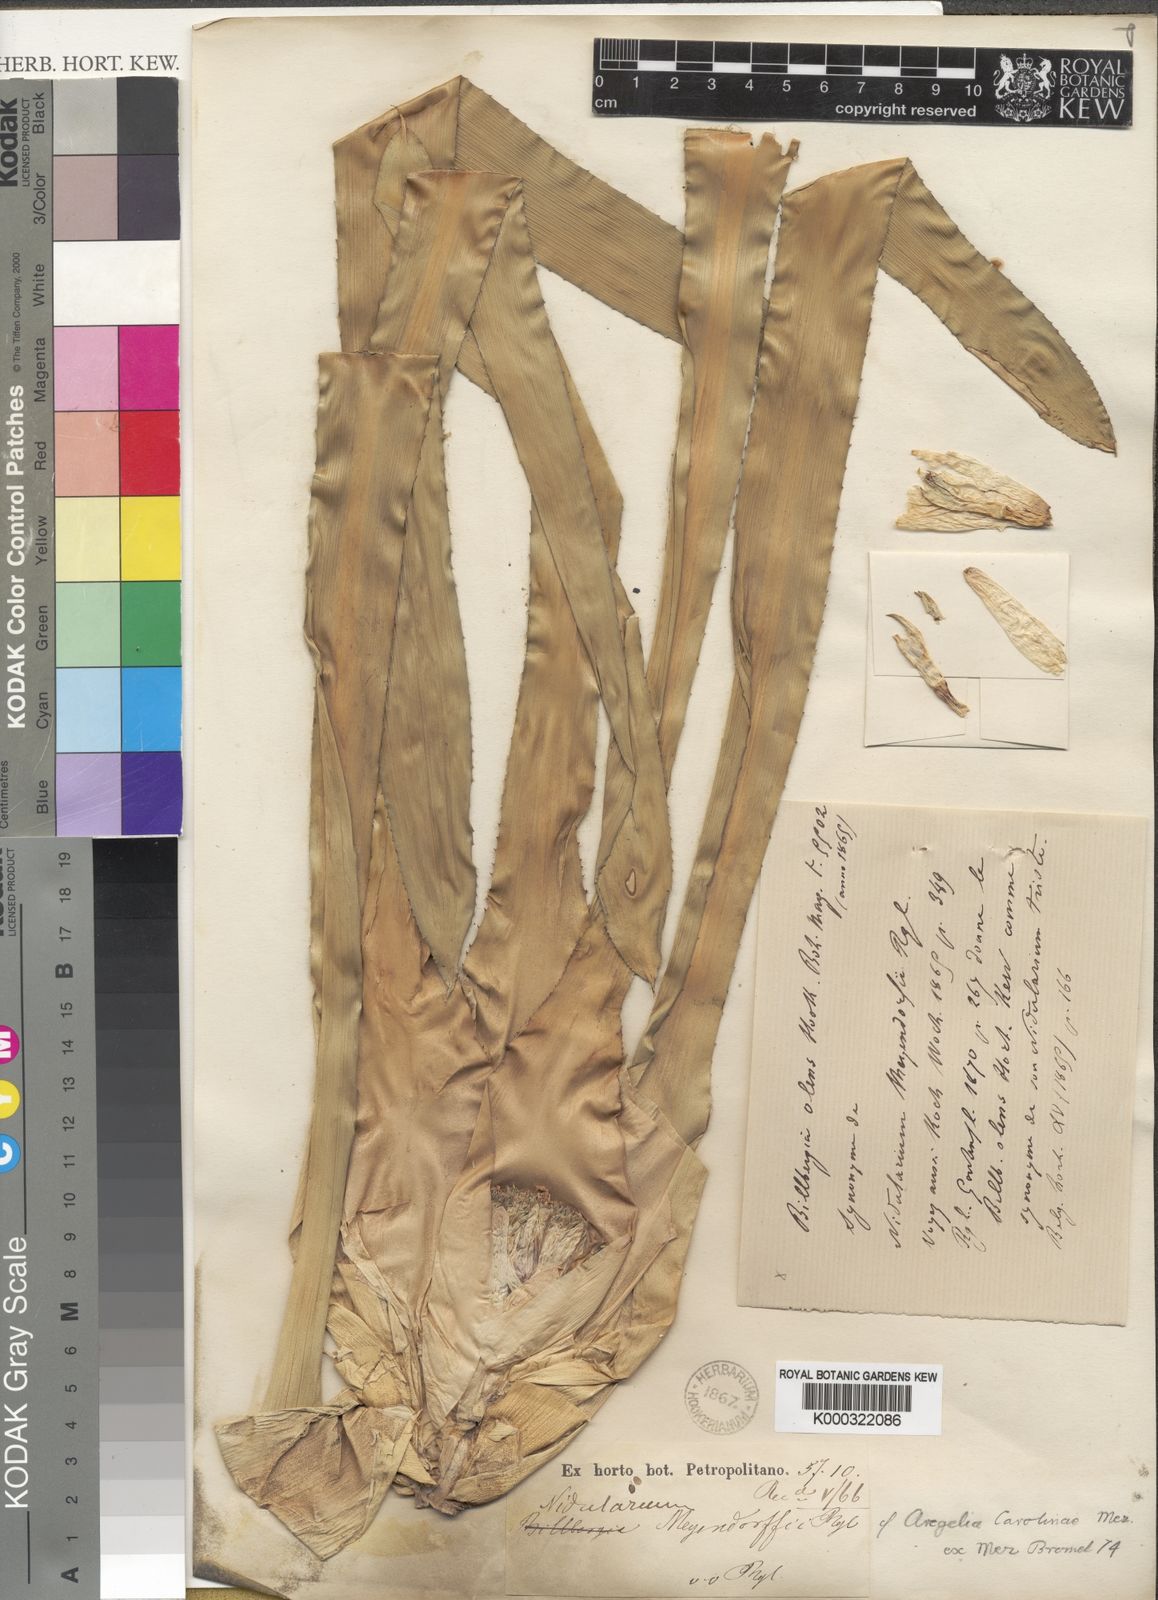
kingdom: Plantae
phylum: Tracheophyta
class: Liliopsida
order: Poales
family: Bromeliaceae
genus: Neoregelia
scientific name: Neoregelia carolinae
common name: Blushing bromeliad
